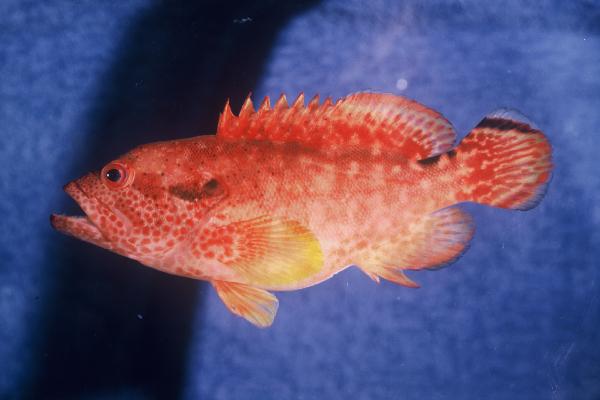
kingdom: Animalia
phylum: Chordata
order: Perciformes
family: Serranidae
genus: Cephalopholis
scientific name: Cephalopholis leopardus
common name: Leopard hind
